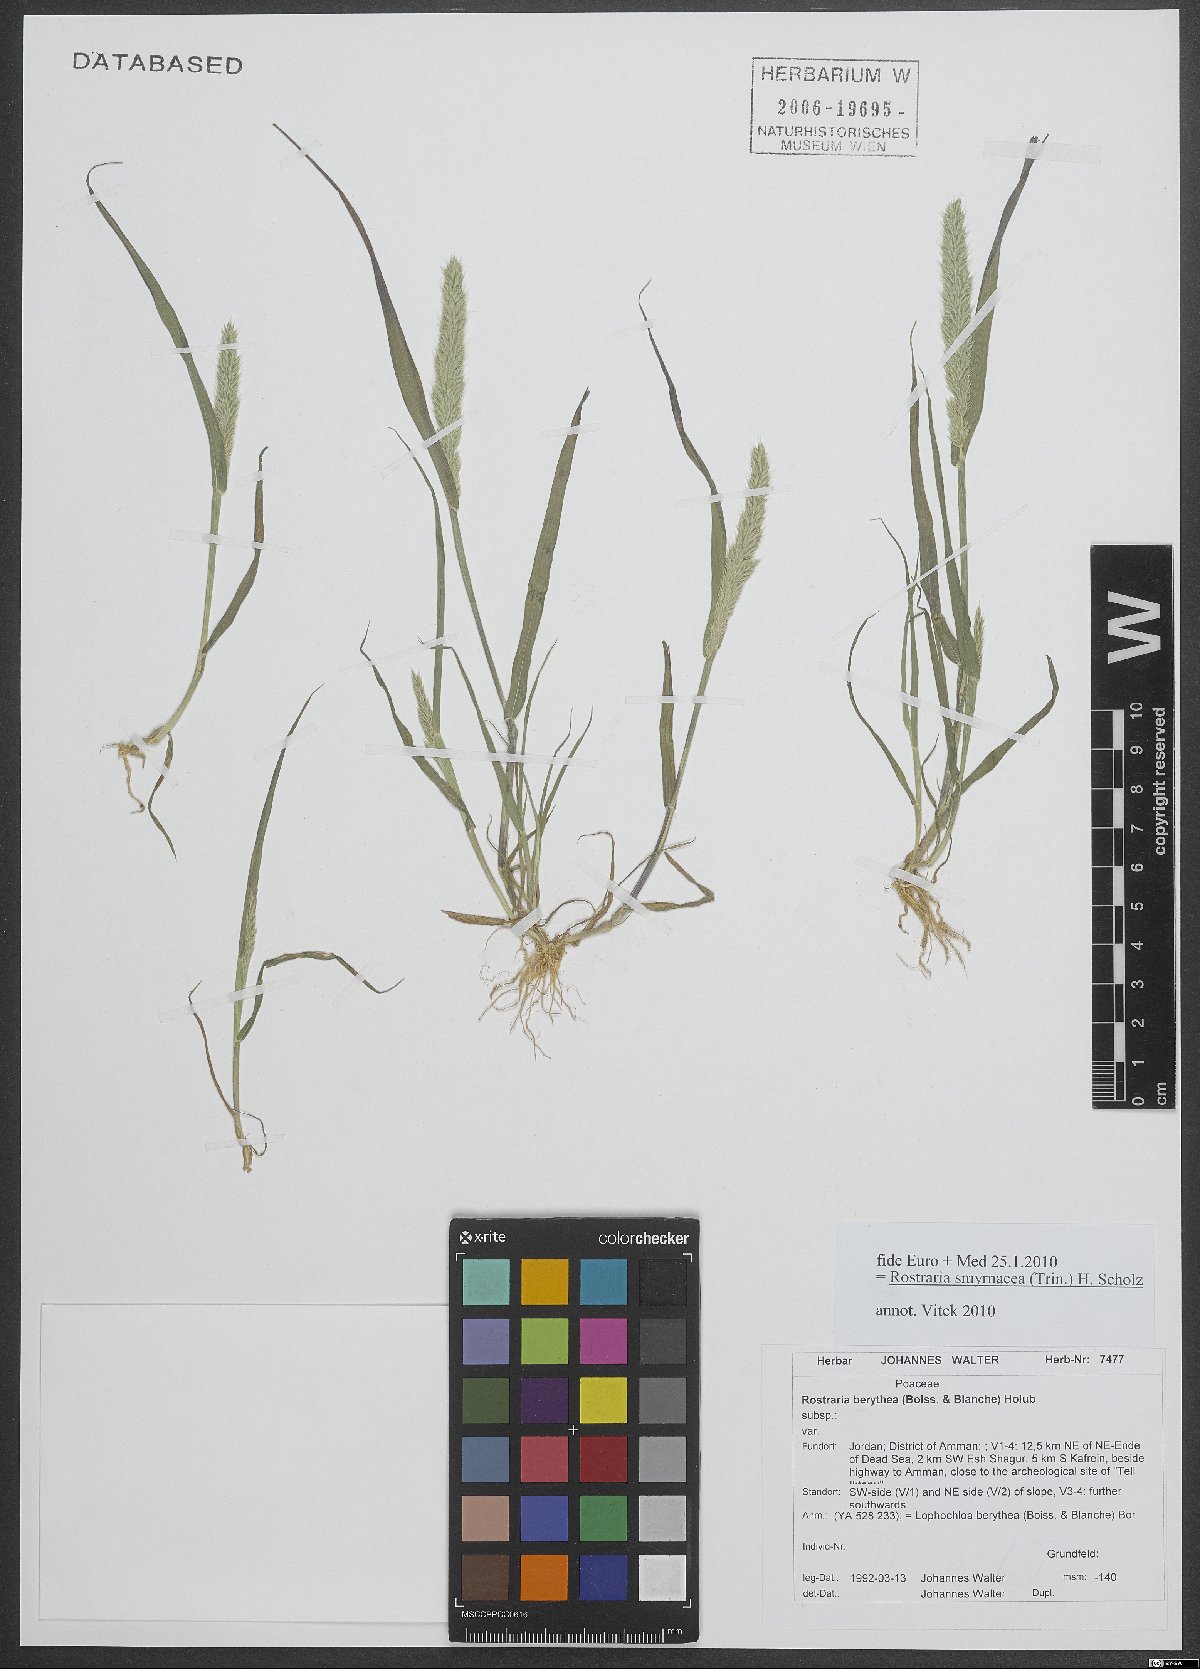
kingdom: Plantae
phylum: Tracheophyta
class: Liliopsida
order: Poales
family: Poaceae
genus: Rostraria
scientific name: Rostraria cristata
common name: Mediterranean hair-grass
